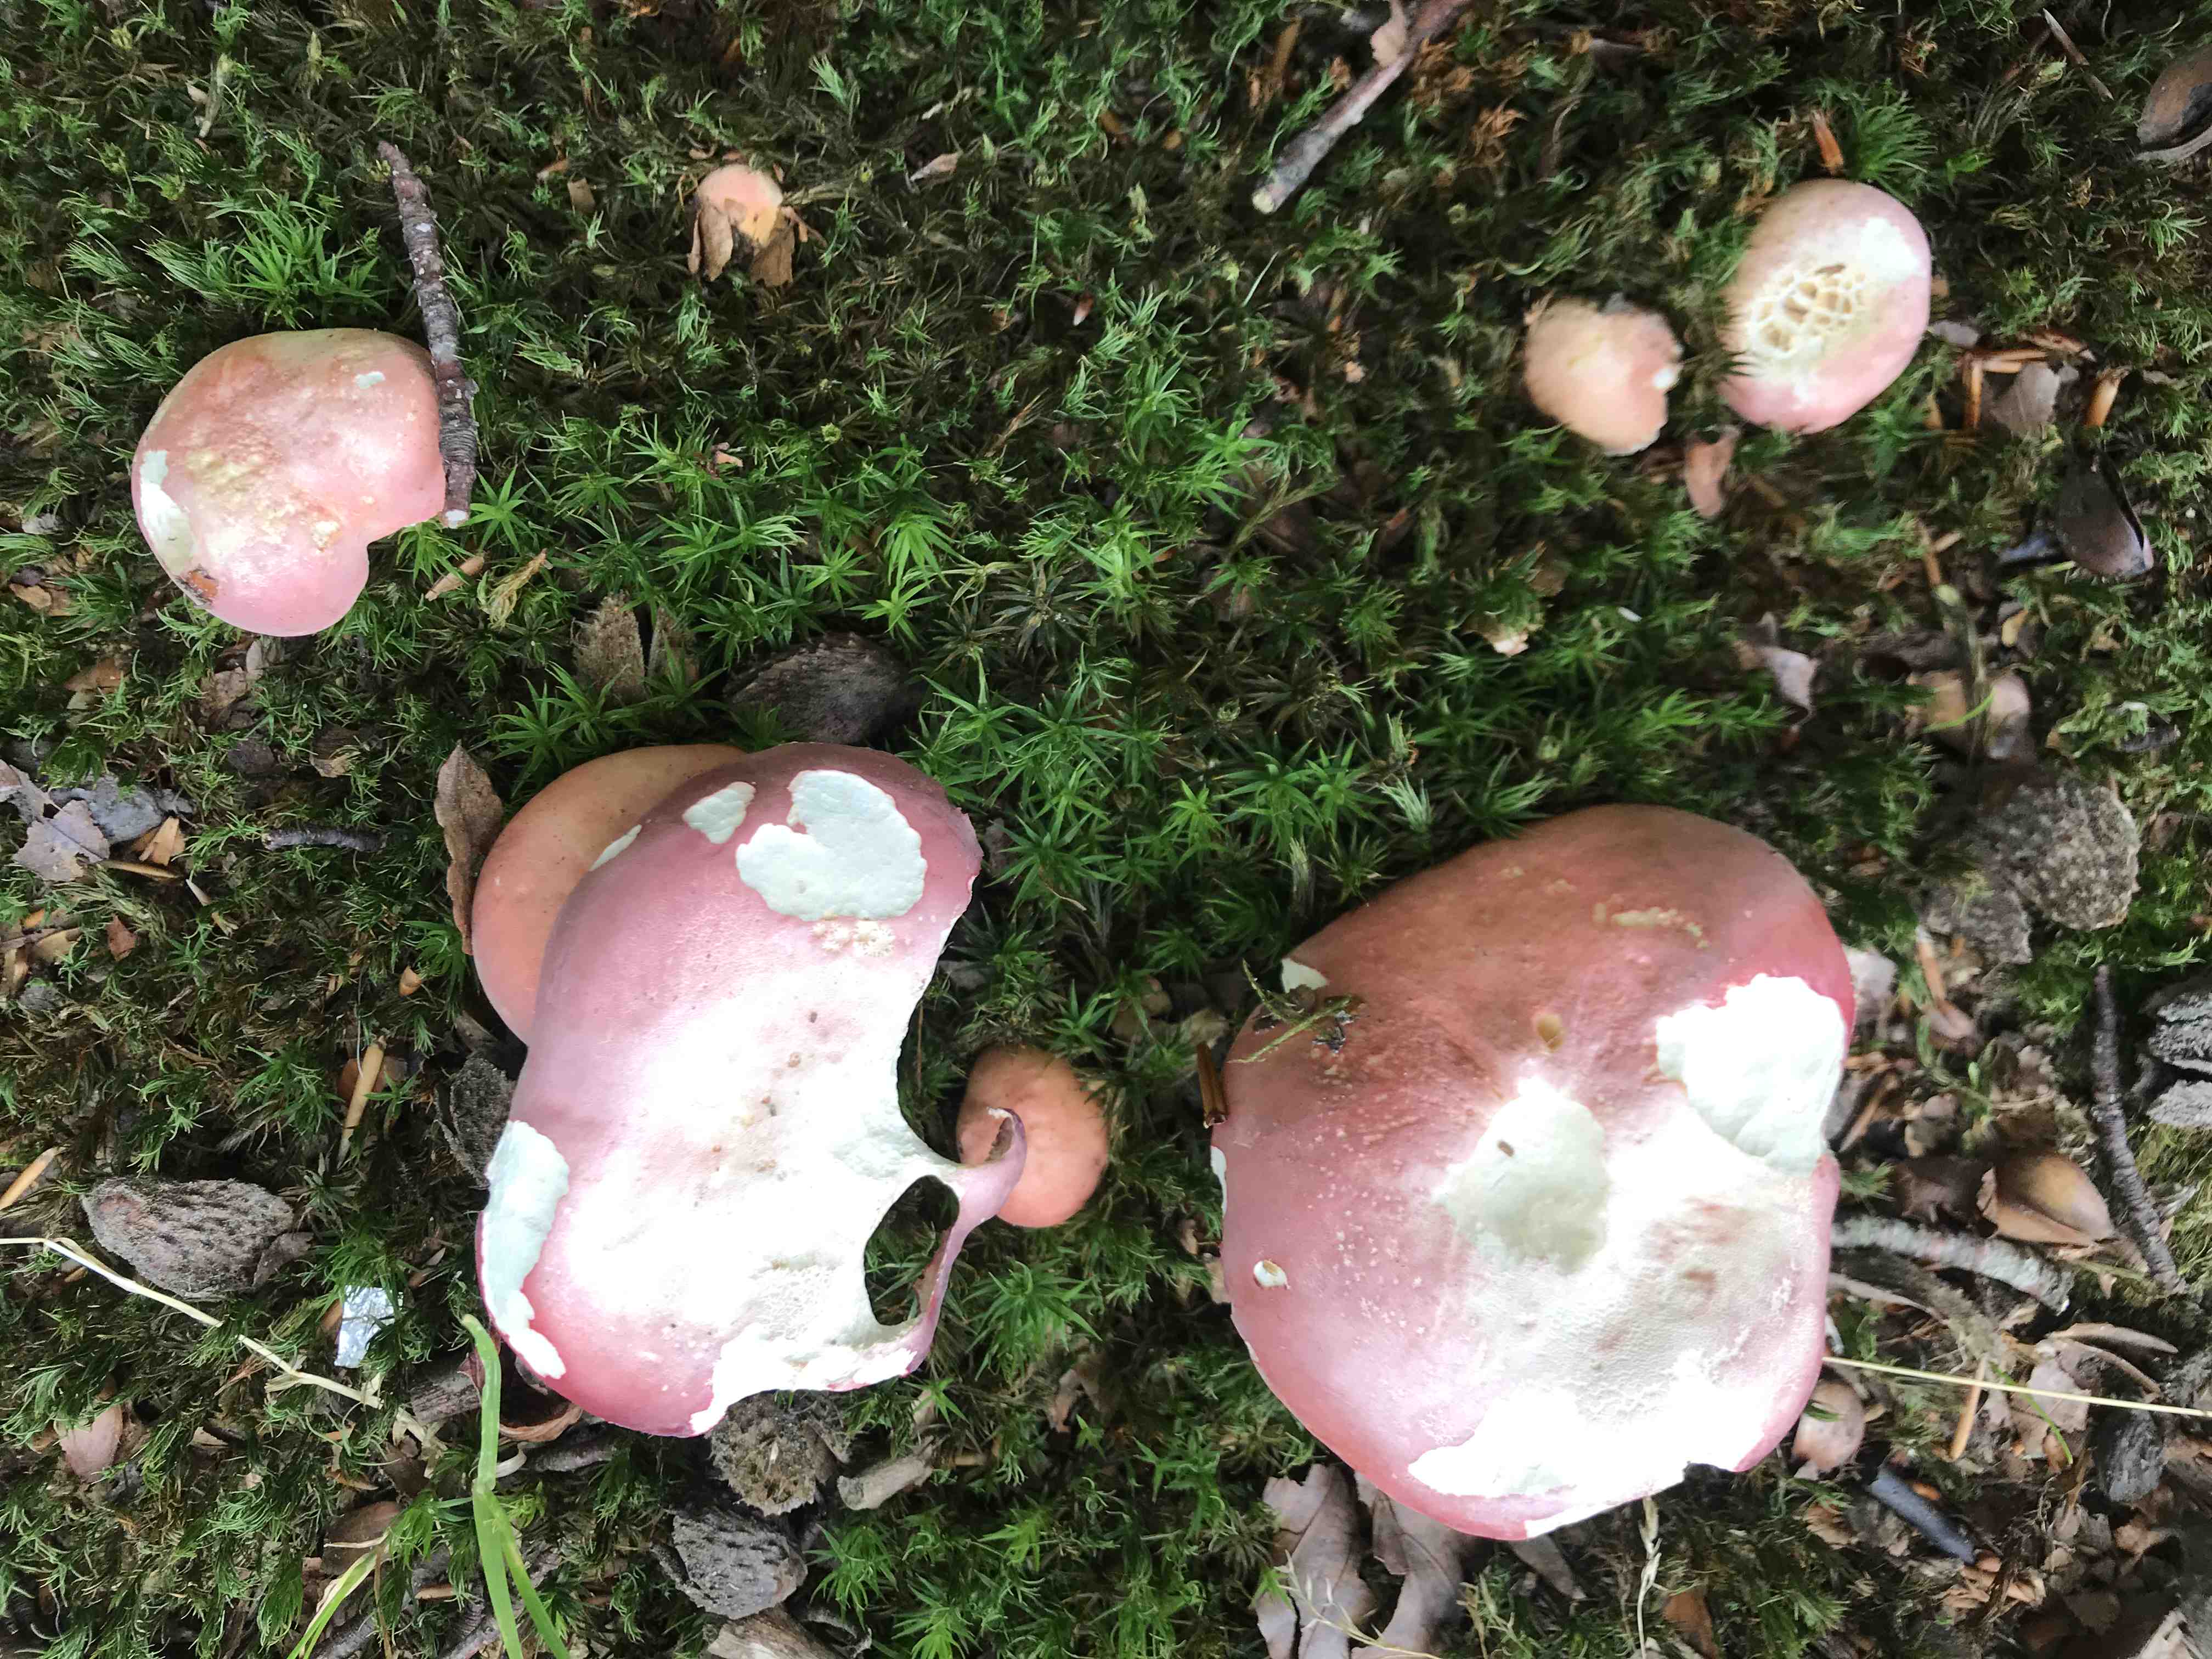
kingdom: Fungi
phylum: Basidiomycota
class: Agaricomycetes
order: Russulales
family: Russulaceae
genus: Russula
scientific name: Russula rosea
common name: fastkødet skørhat
